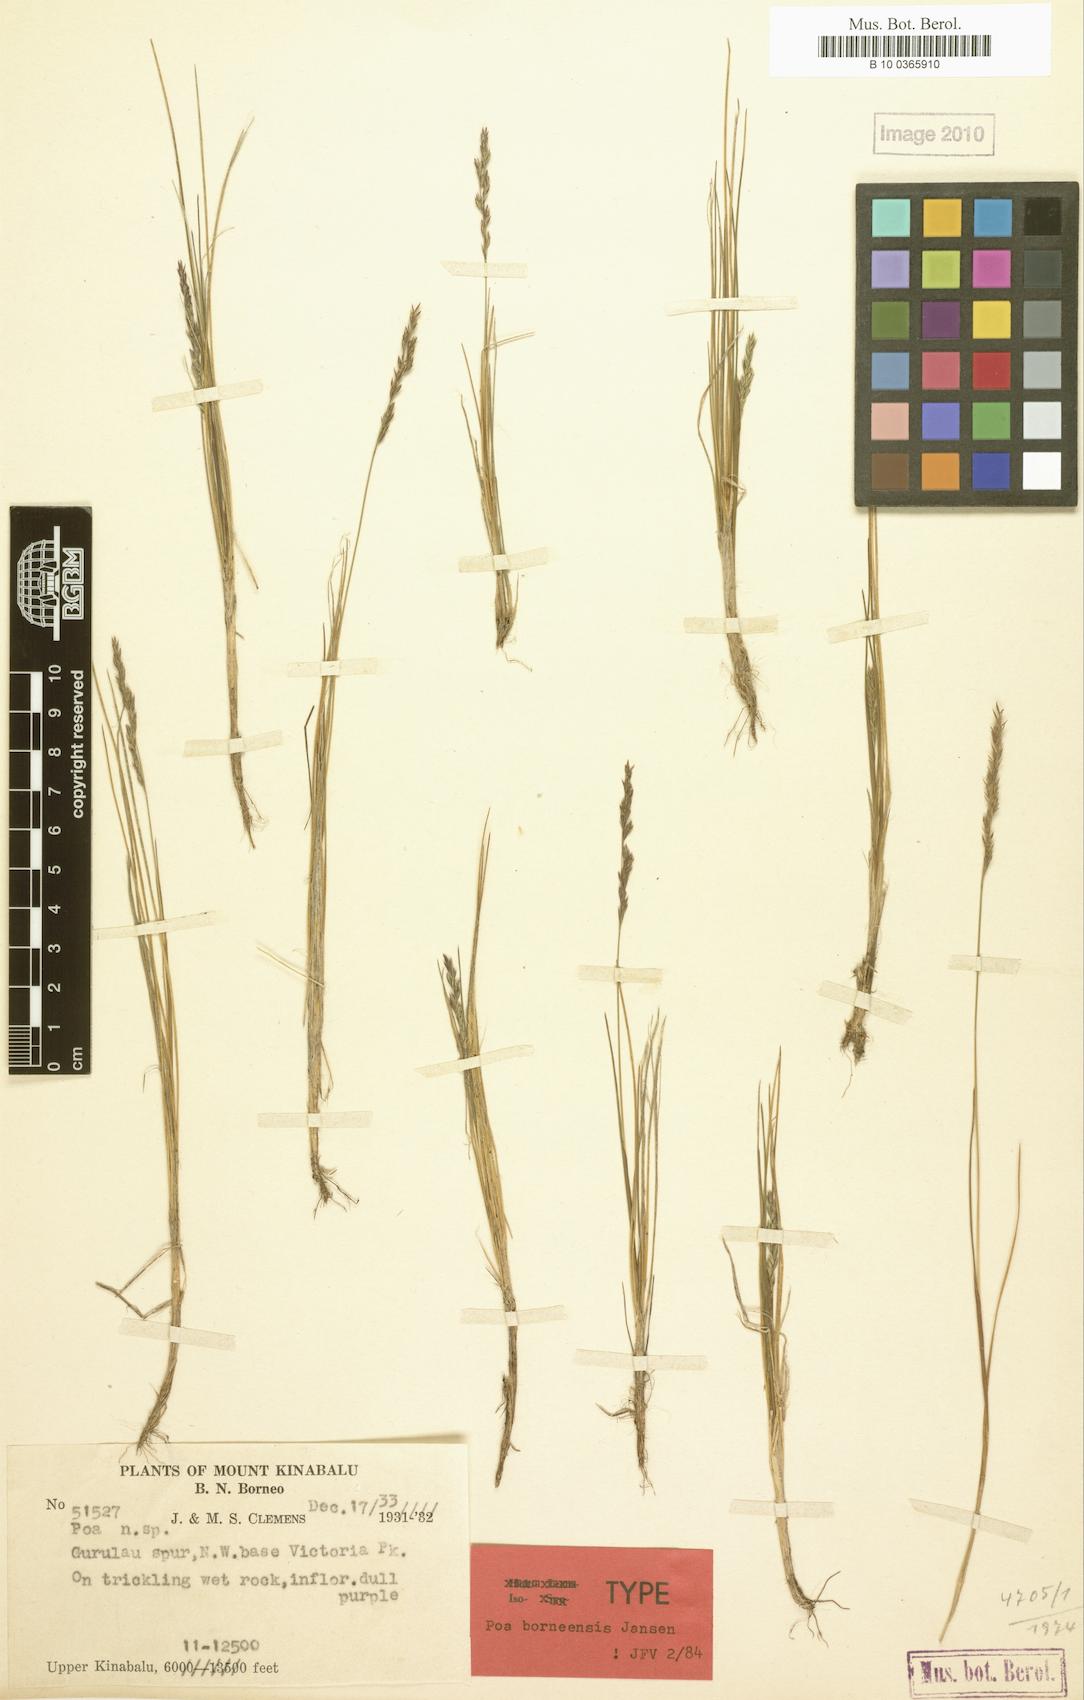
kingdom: Plantae
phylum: Tracheophyta
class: Liliopsida
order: Poales
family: Poaceae
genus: Poa
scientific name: Poa borneensis
